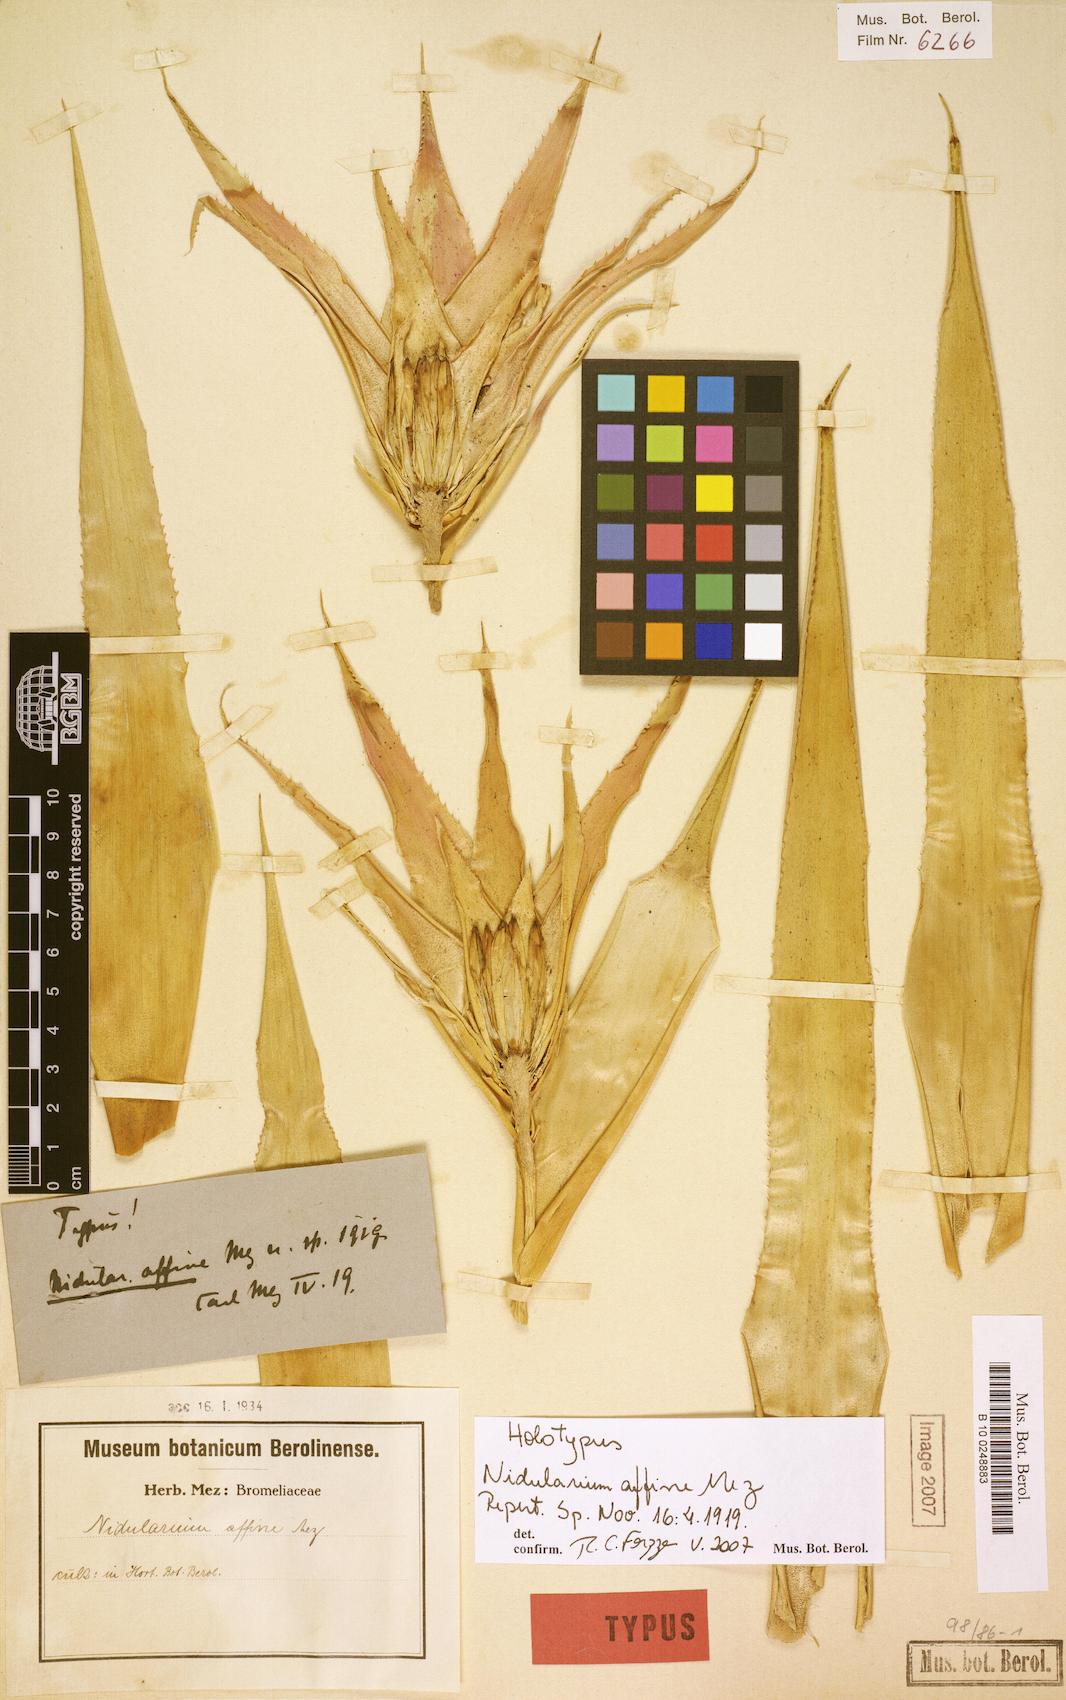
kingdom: Plantae
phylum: Tracheophyta
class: Liliopsida
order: Poales
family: Bromeliaceae
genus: Nidularium
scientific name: Nidularium procerum
